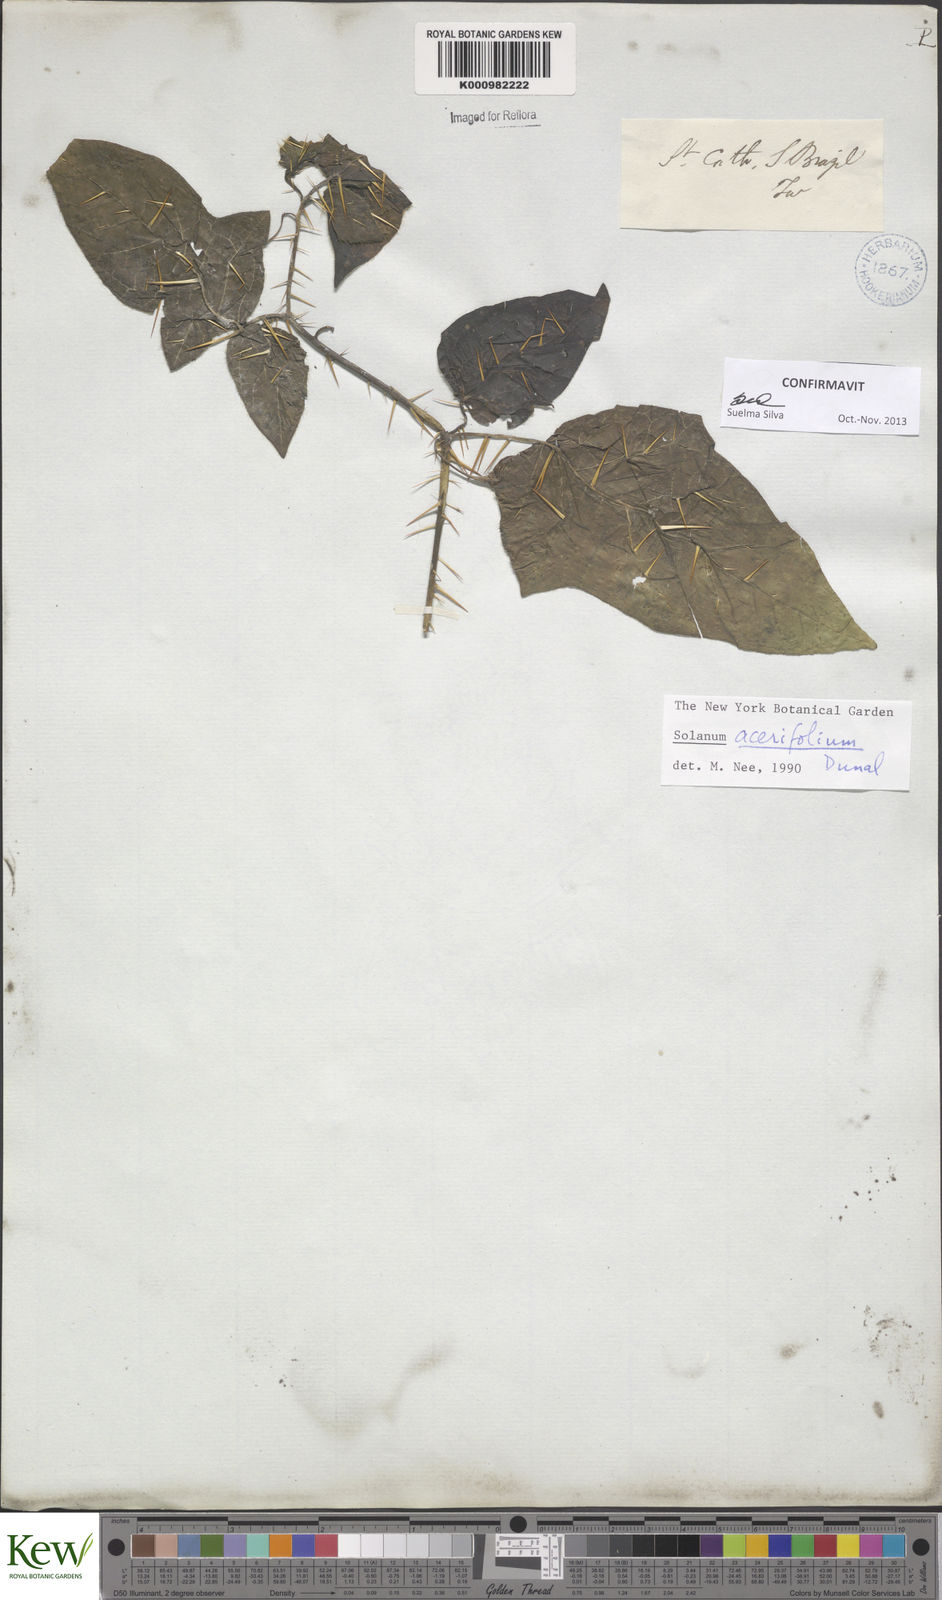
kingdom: Plantae
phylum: Tracheophyta
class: Magnoliopsida
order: Solanales
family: Solanaceae
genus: Solanum
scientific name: Solanum acerifolium
